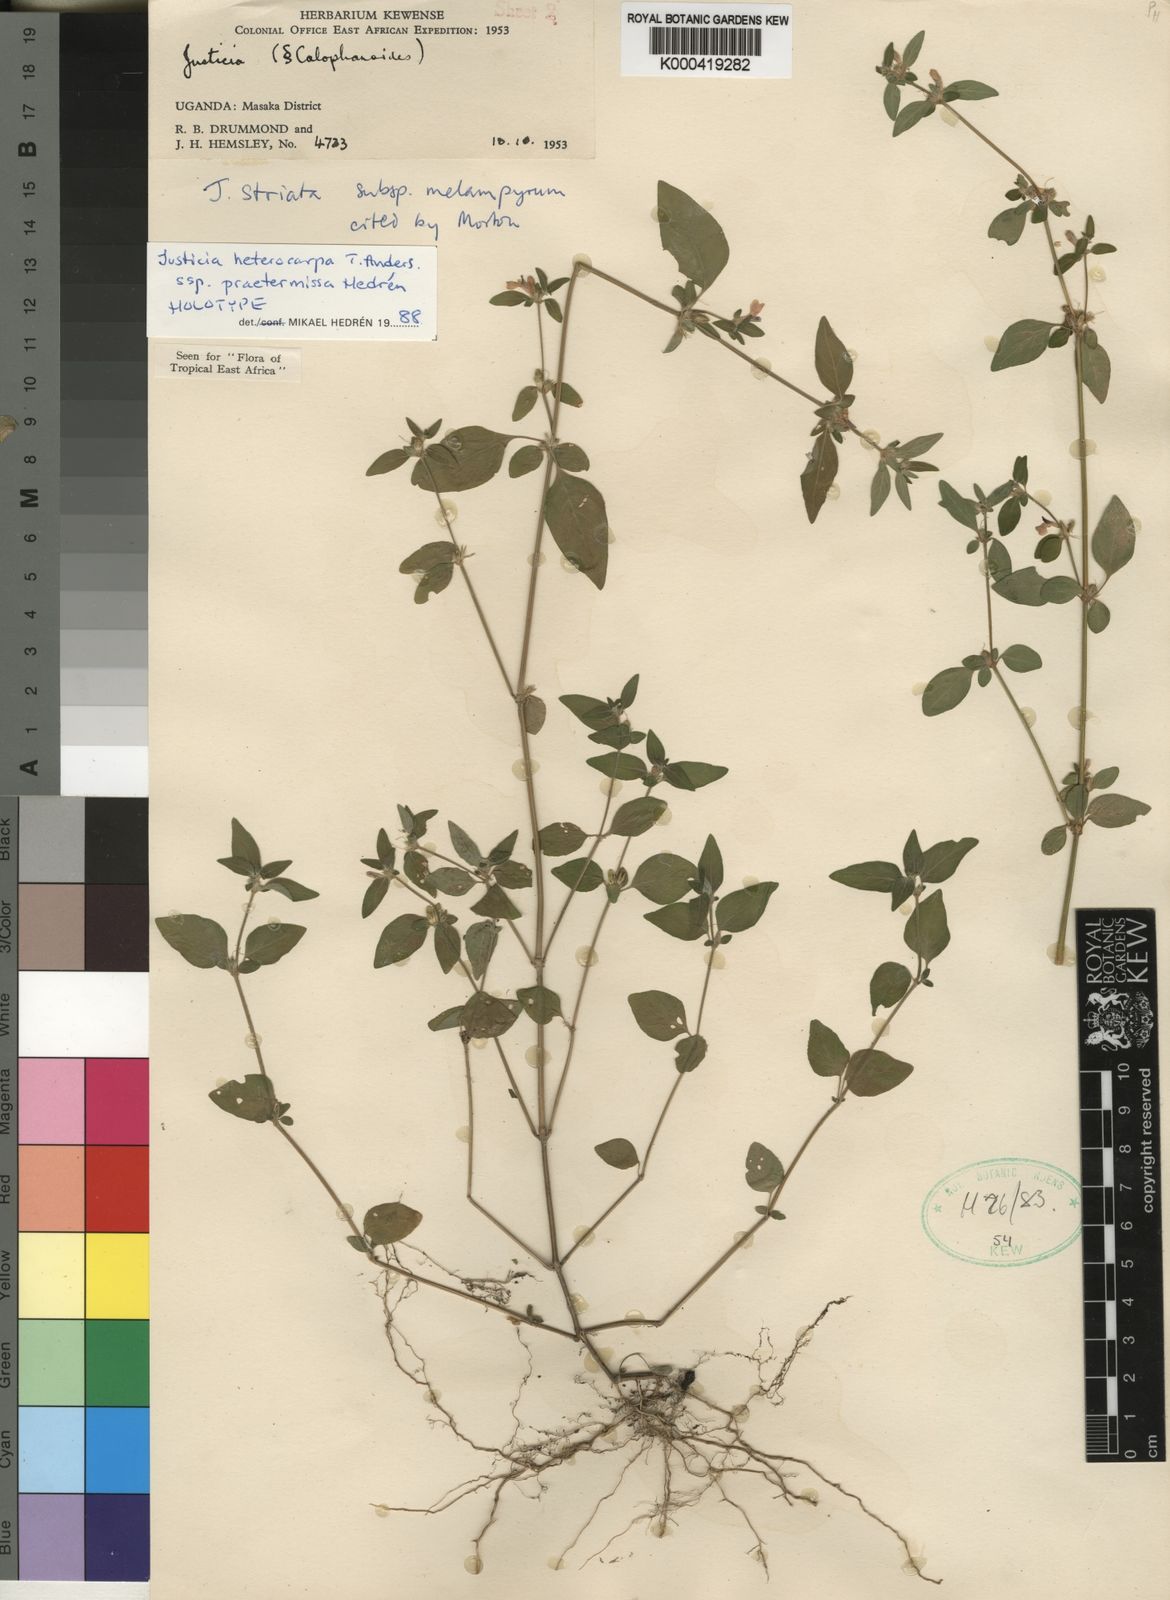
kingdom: Plantae
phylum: Tracheophyta
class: Magnoliopsida
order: Lamiales
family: Acanthaceae
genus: Justicia
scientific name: Justicia heterocarpa
